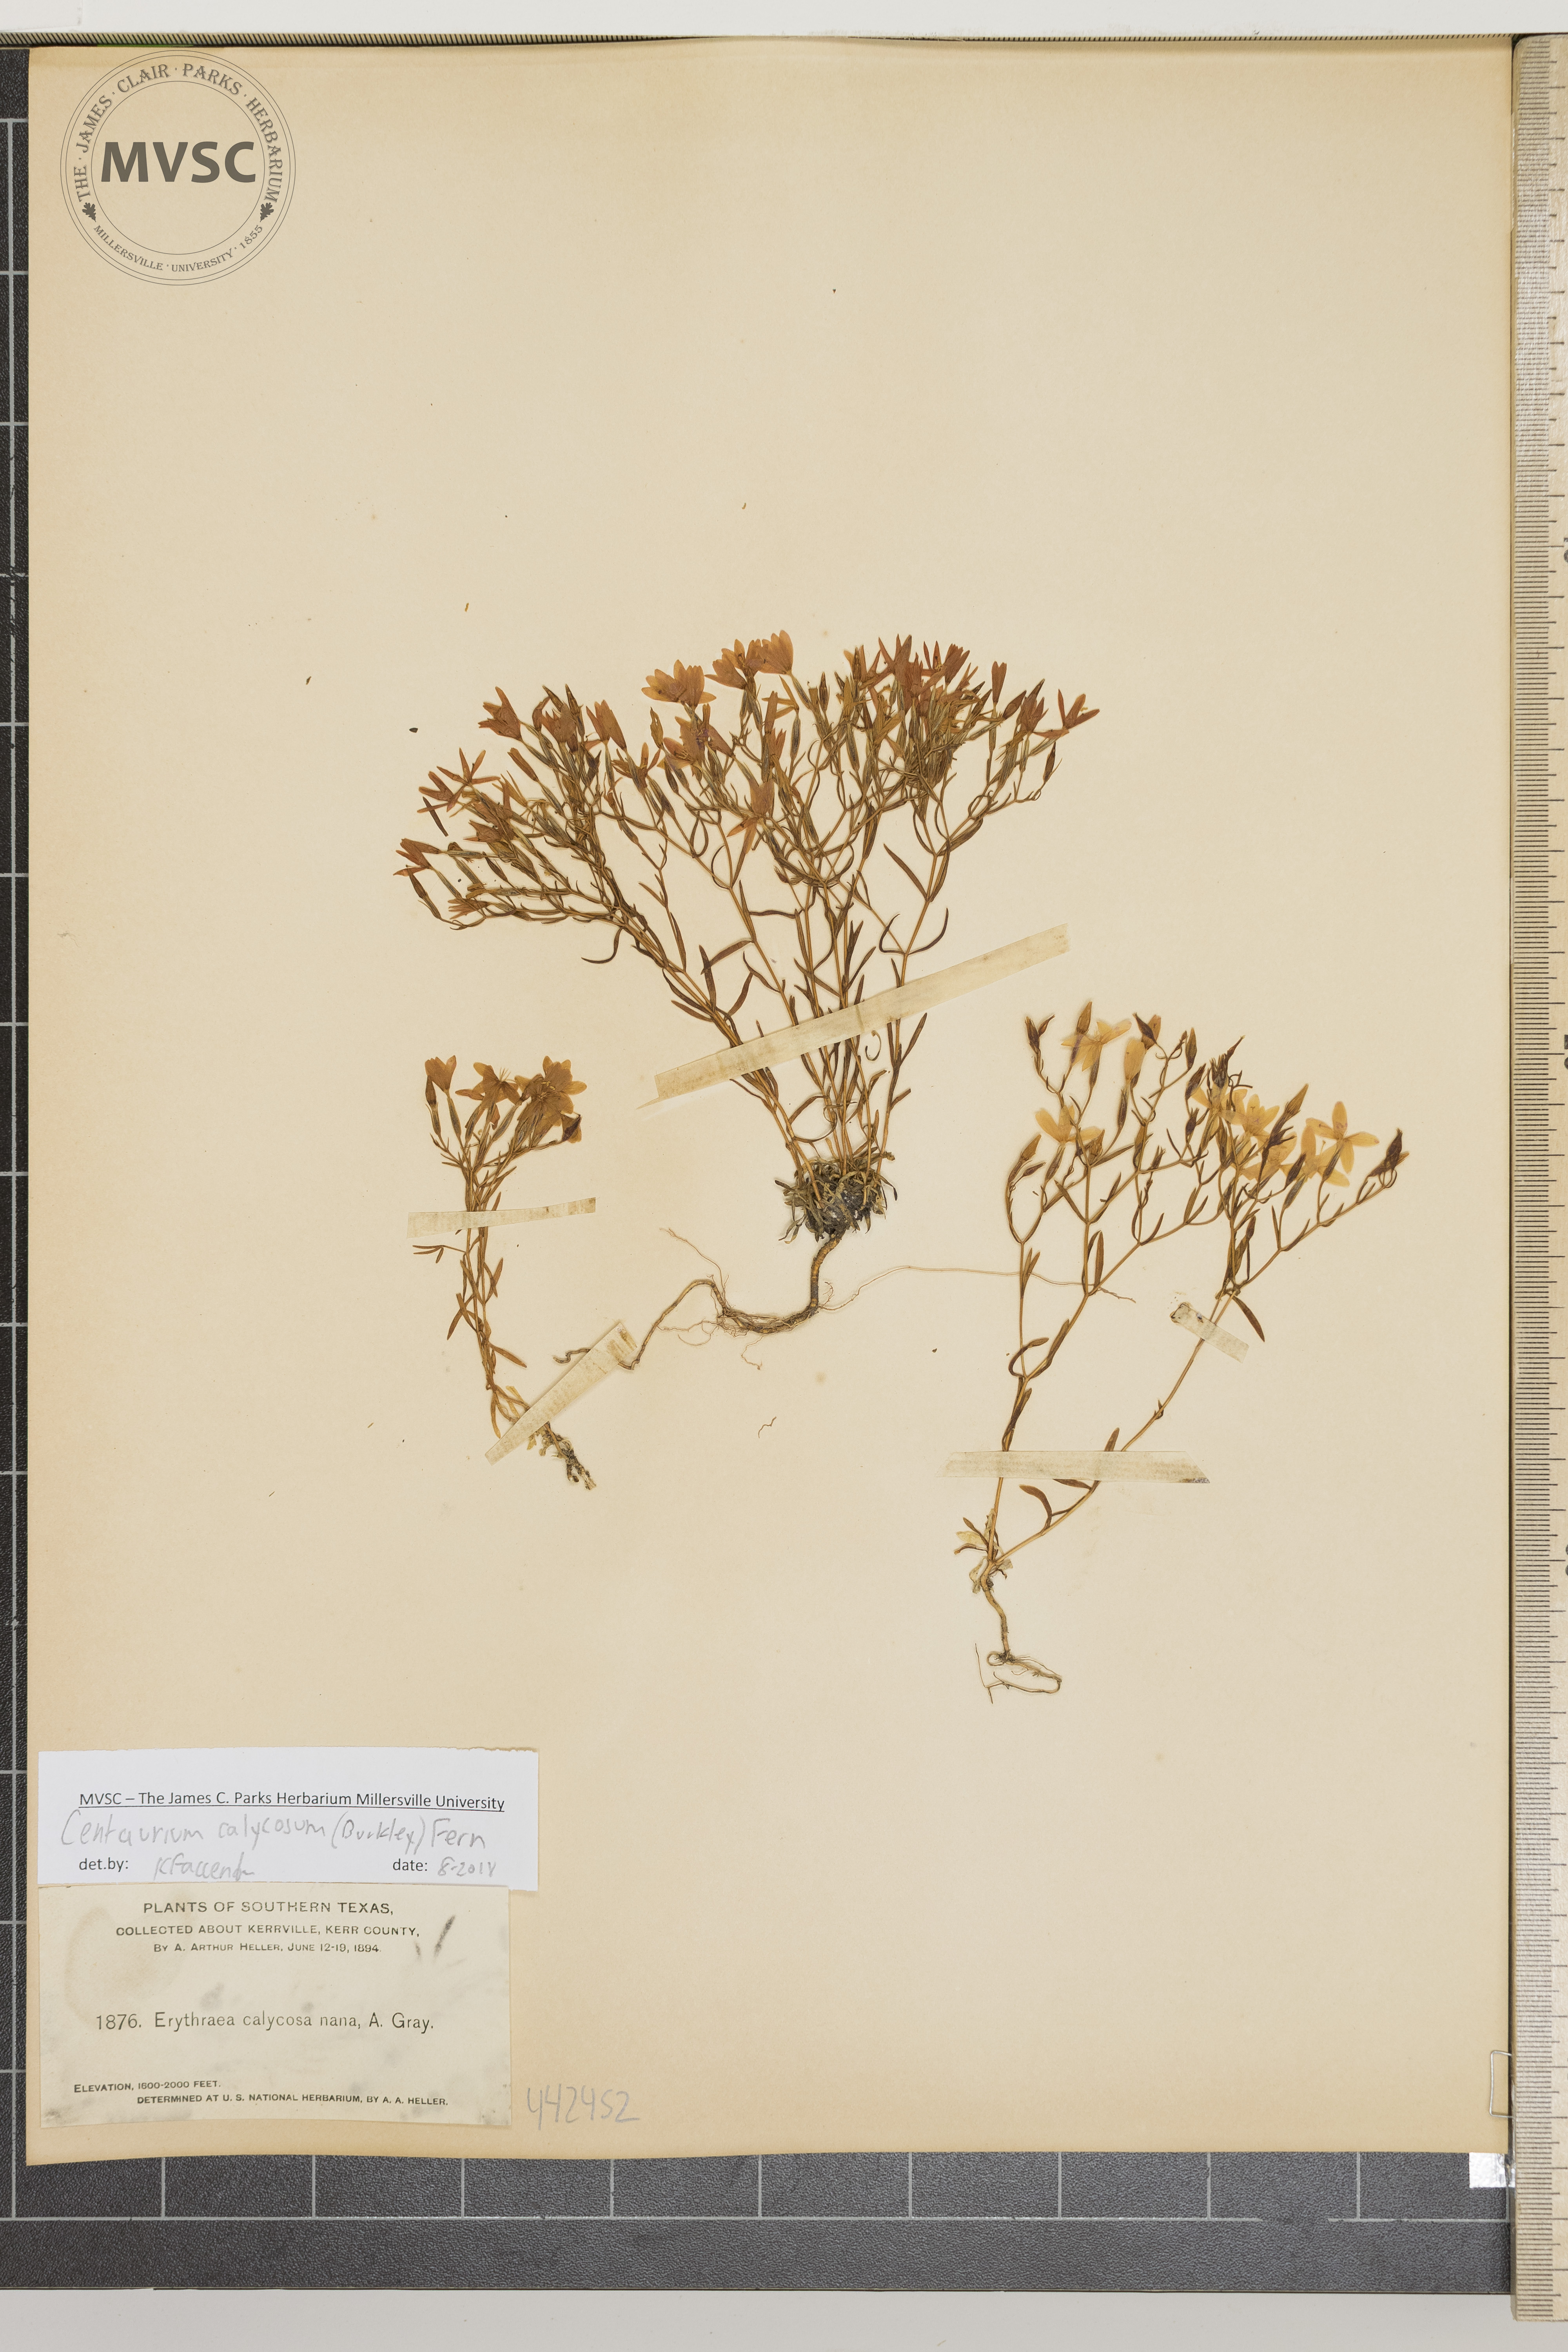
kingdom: Plantae
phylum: Tracheophyta
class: Magnoliopsida
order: Gentianales
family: Gentianaceae
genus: Zeltnera
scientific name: Zeltnera calycosa
